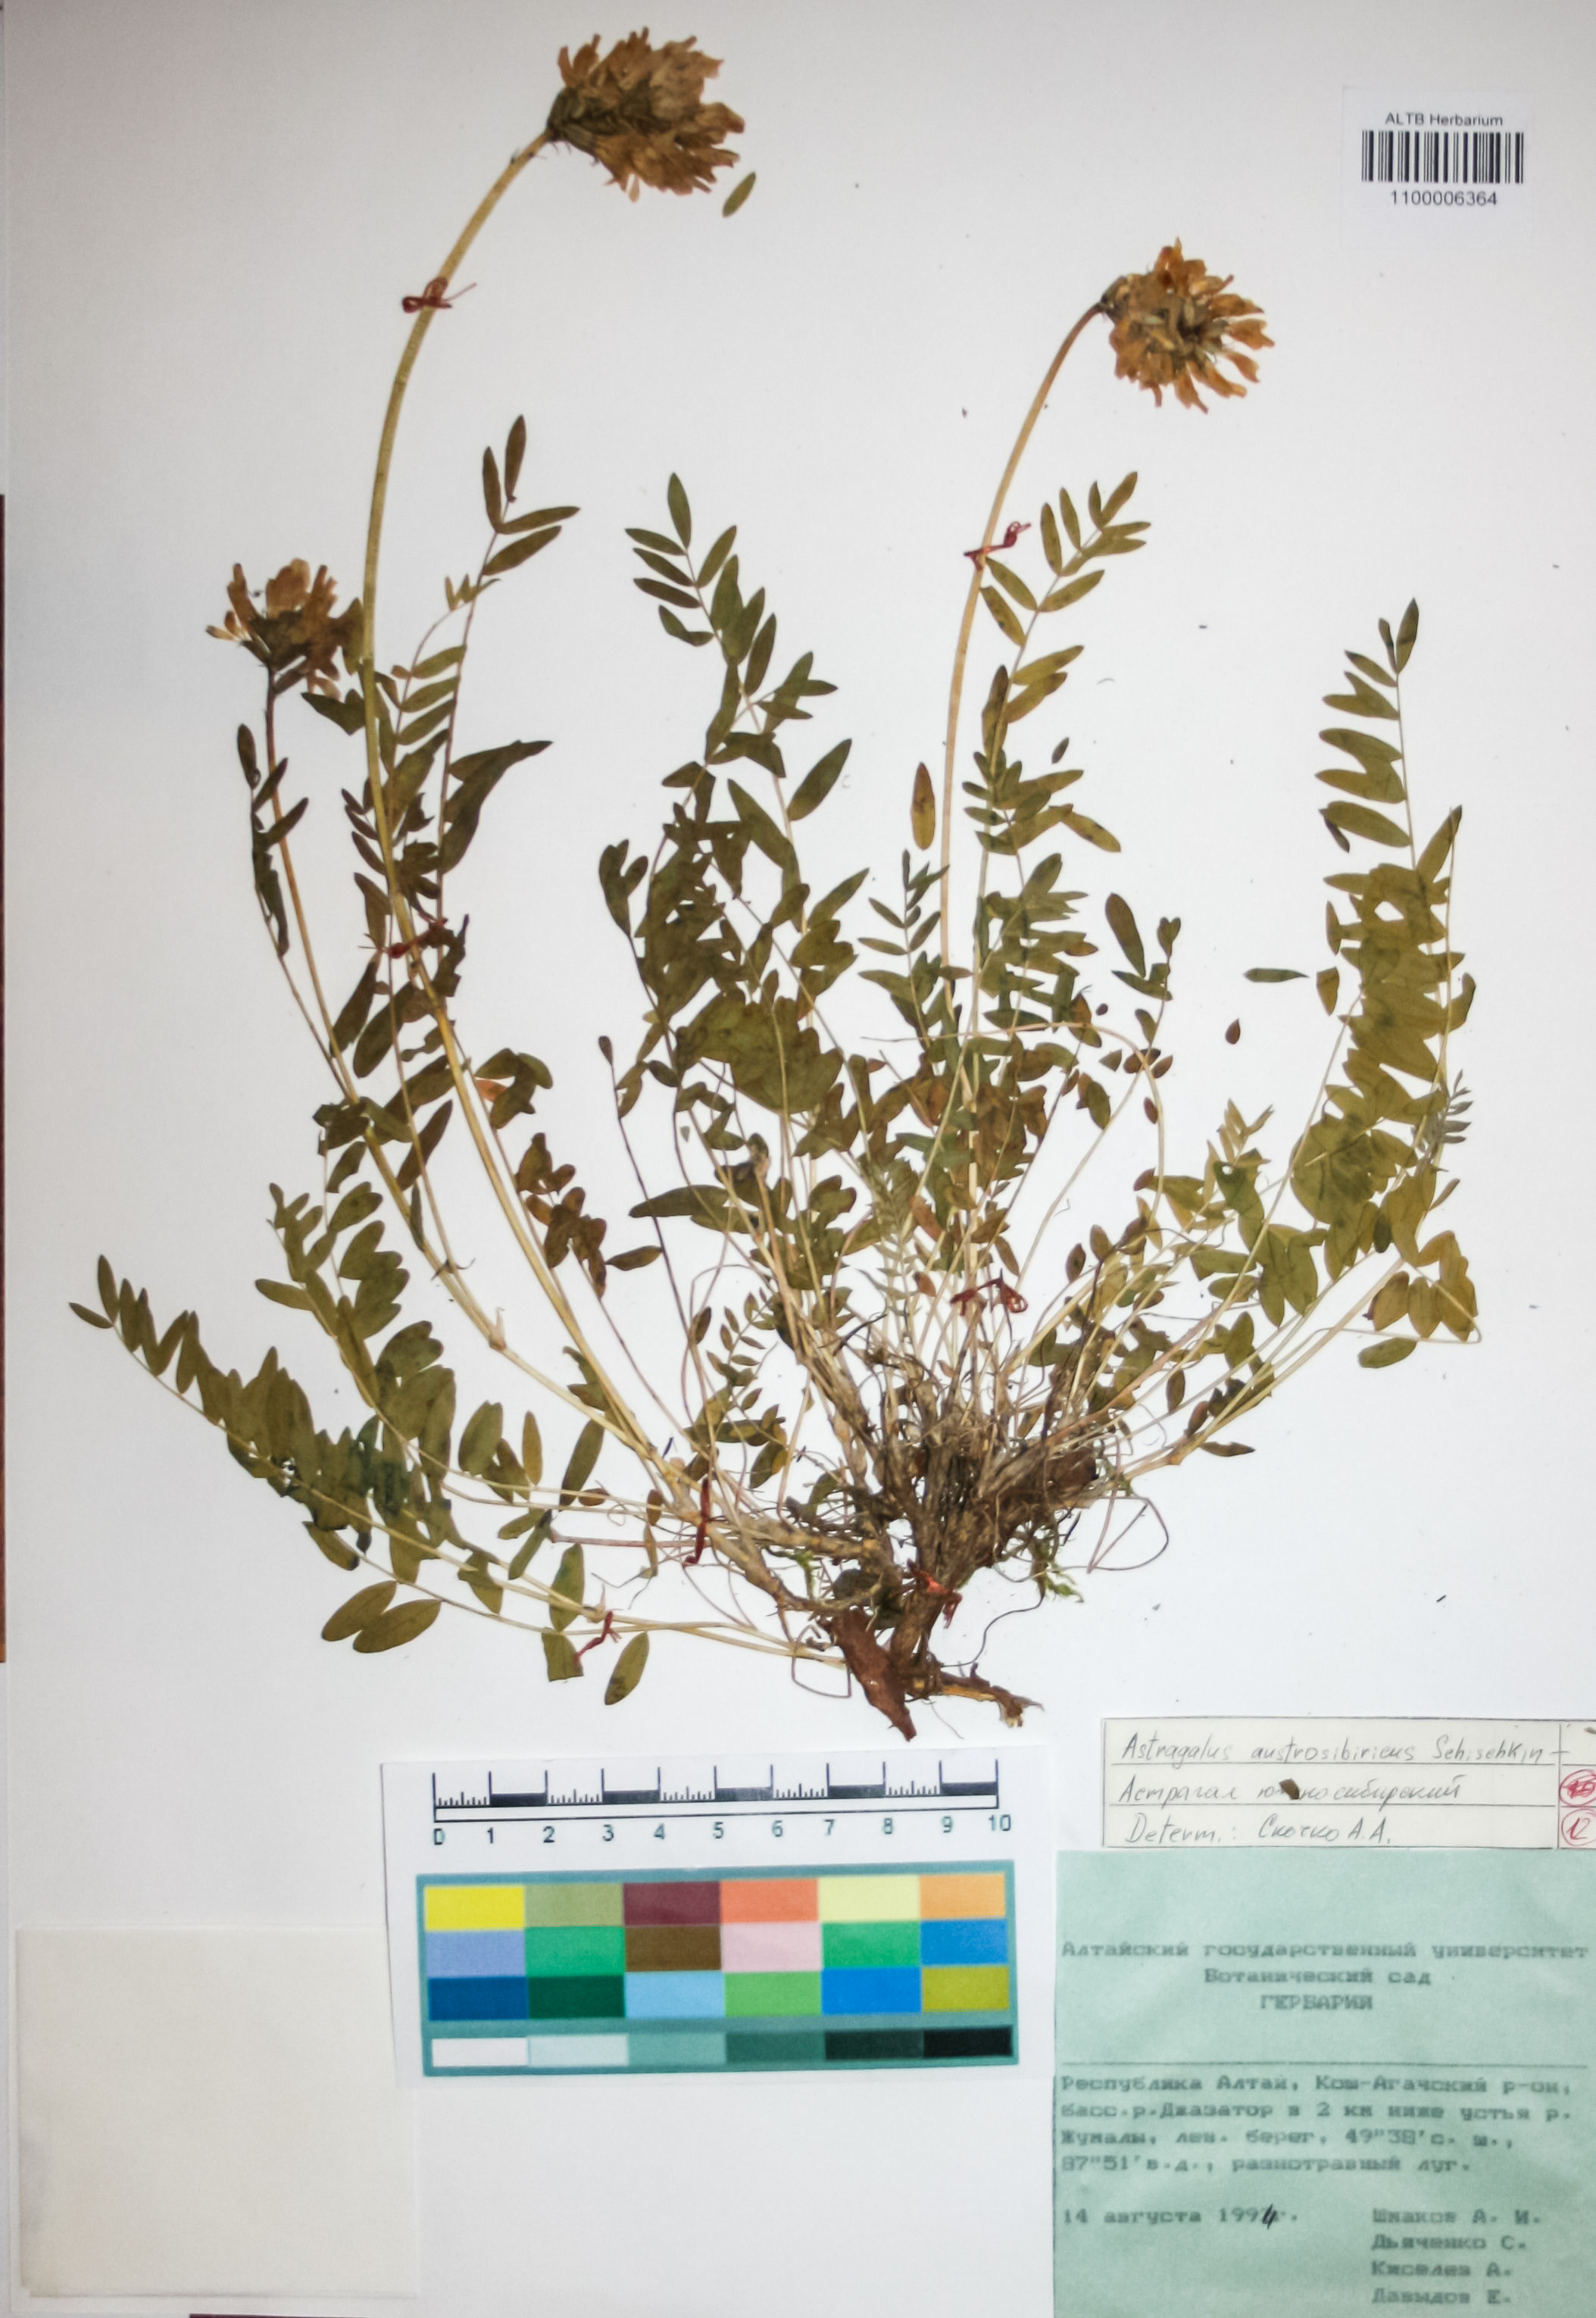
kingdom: Plantae
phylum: Tracheophyta
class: Magnoliopsida
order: Fabales
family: Fabaceae
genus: Astragalus
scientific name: Astragalus laxmannii
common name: Laxmann's milk-vetch
